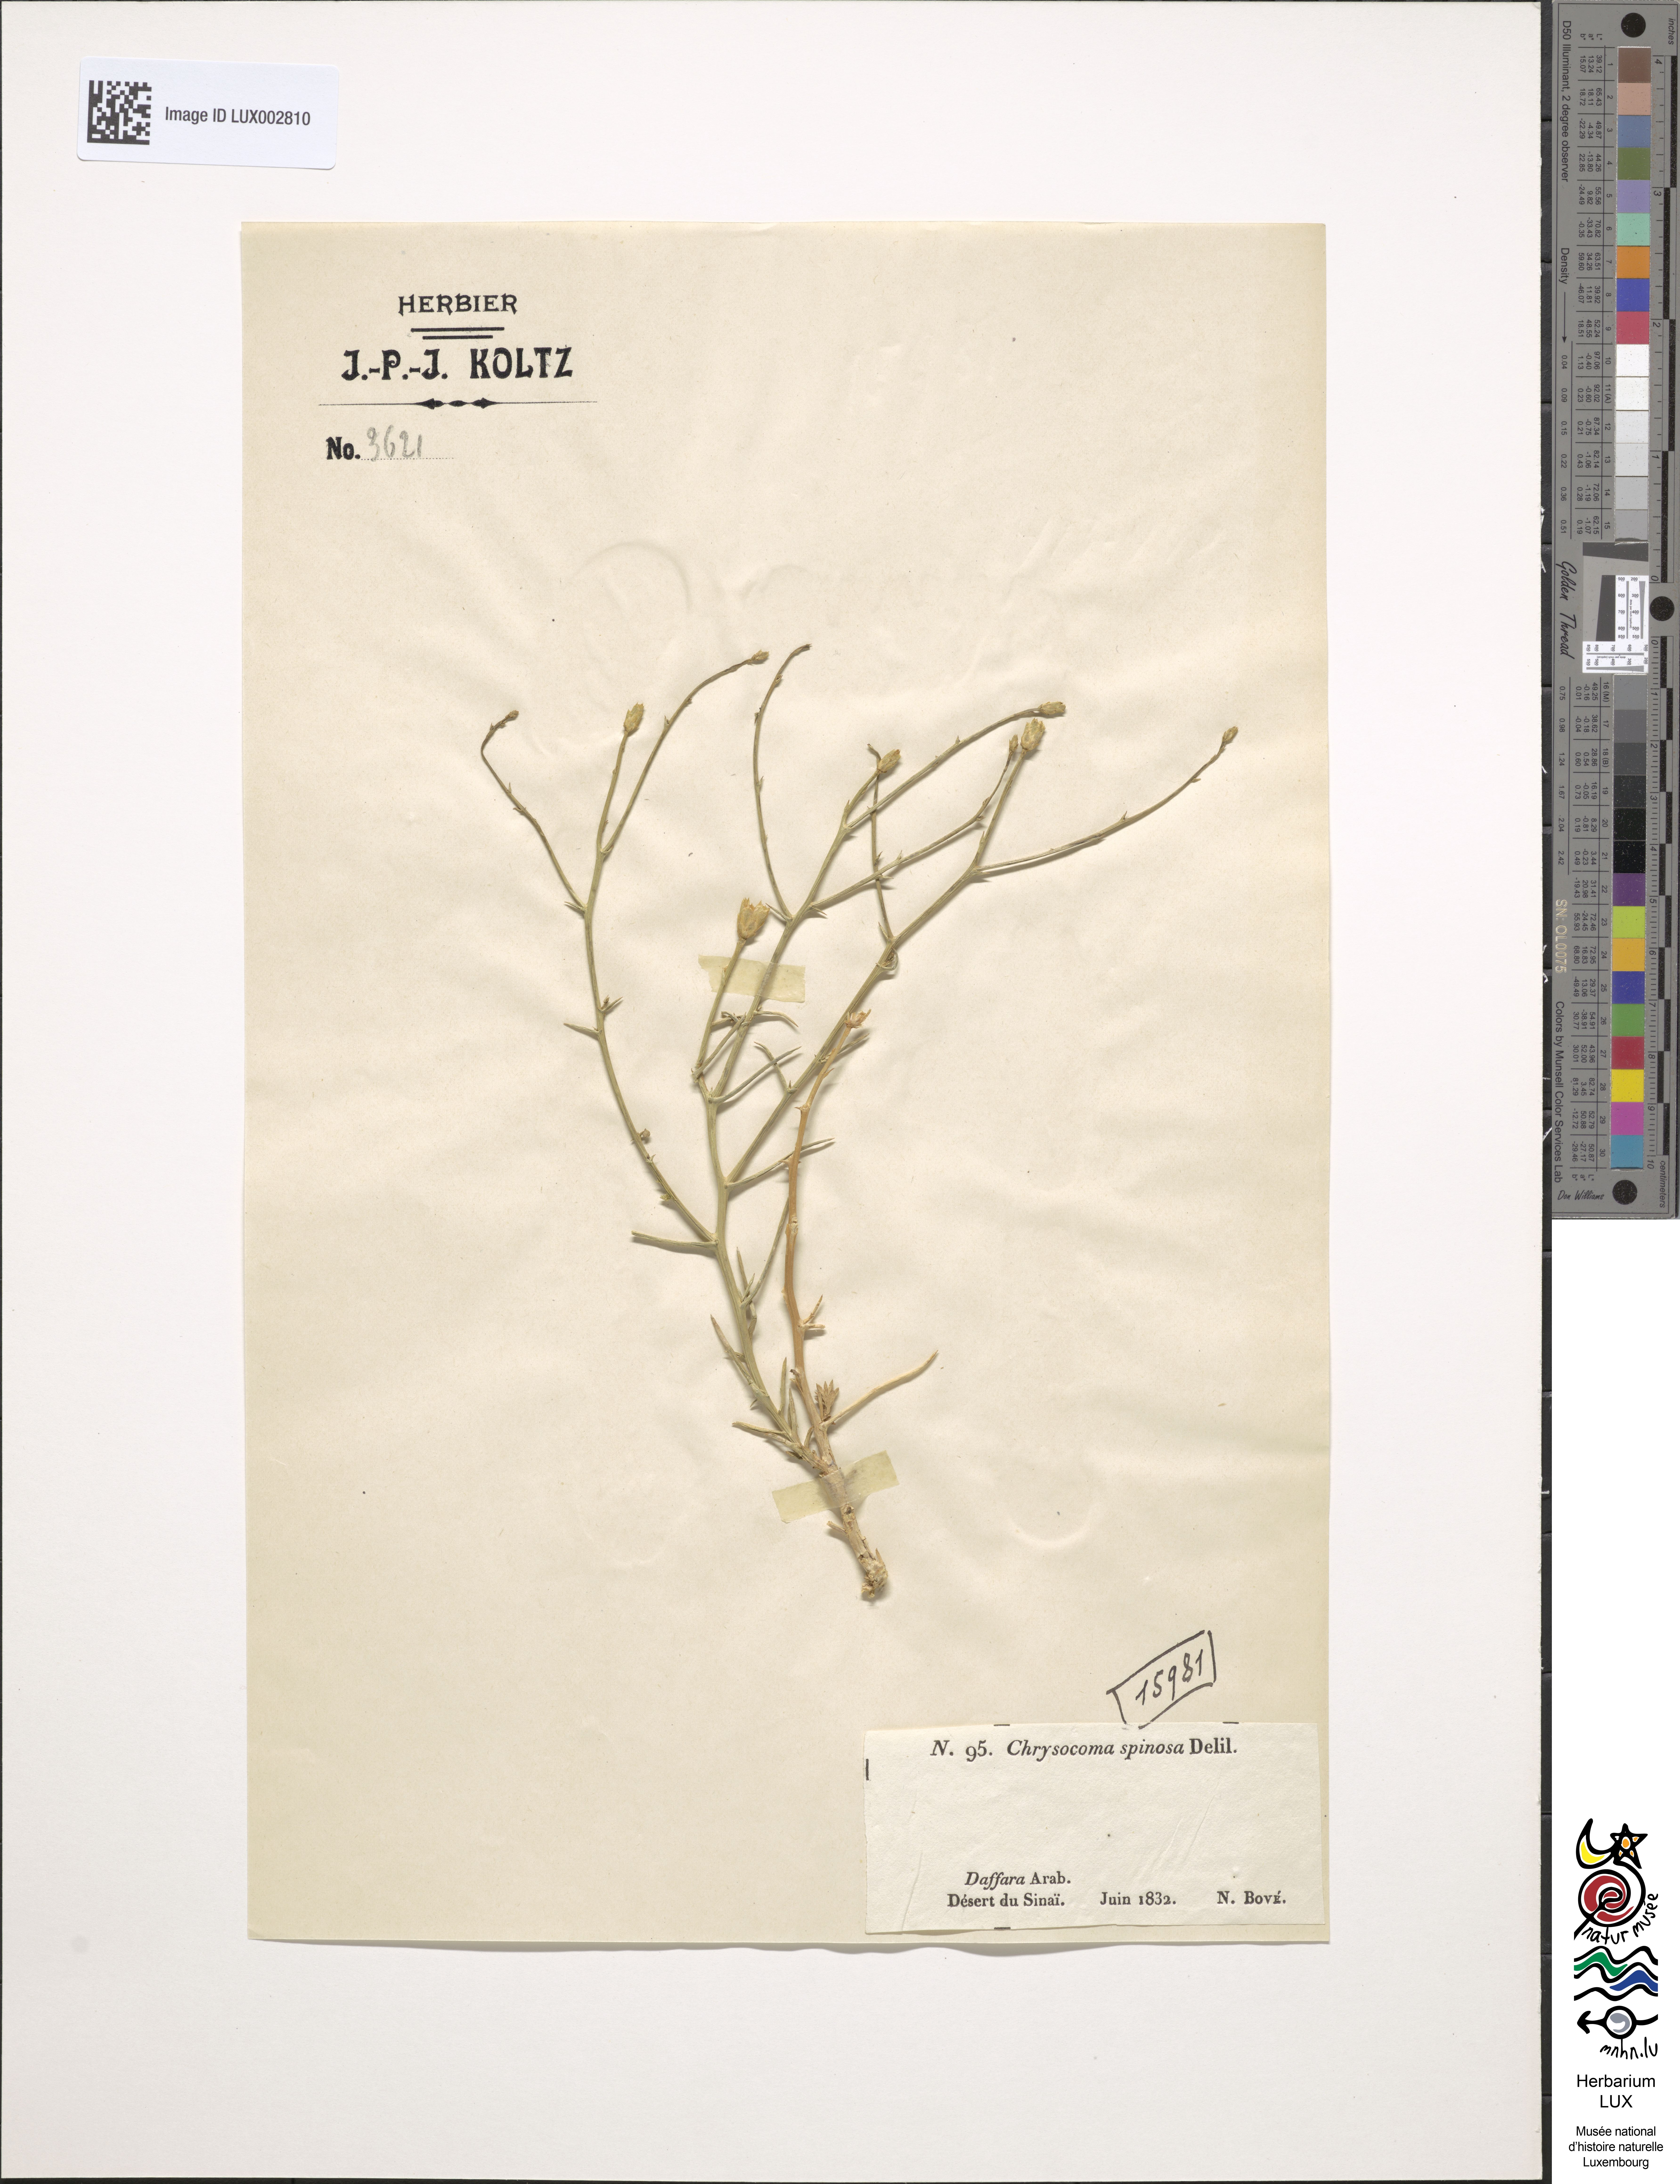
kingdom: Plantae
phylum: Tracheophyta
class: Magnoliopsida
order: Asterales
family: Asteraceae
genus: Iphiona
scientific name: Iphiona mucronata
